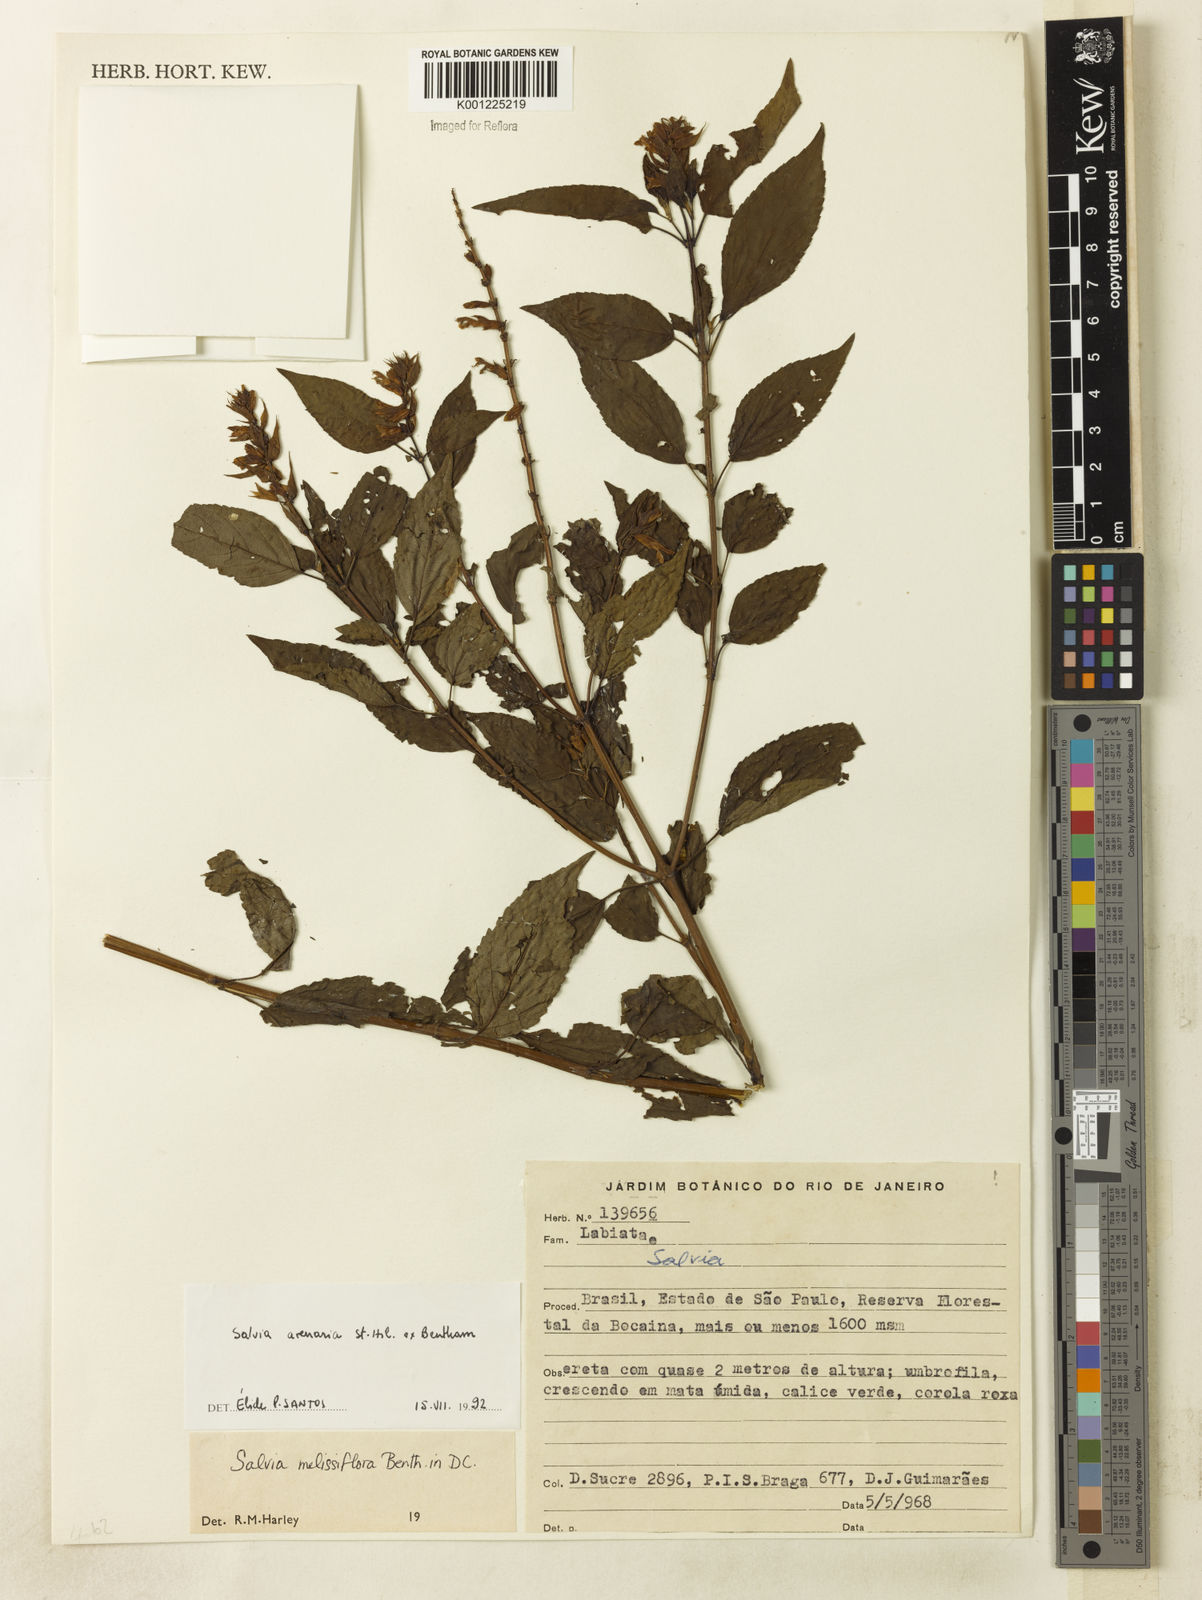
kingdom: Plantae
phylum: Tracheophyta
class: Magnoliopsida
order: Lamiales
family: Lamiaceae
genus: Salvia
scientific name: Salvia arenaria
